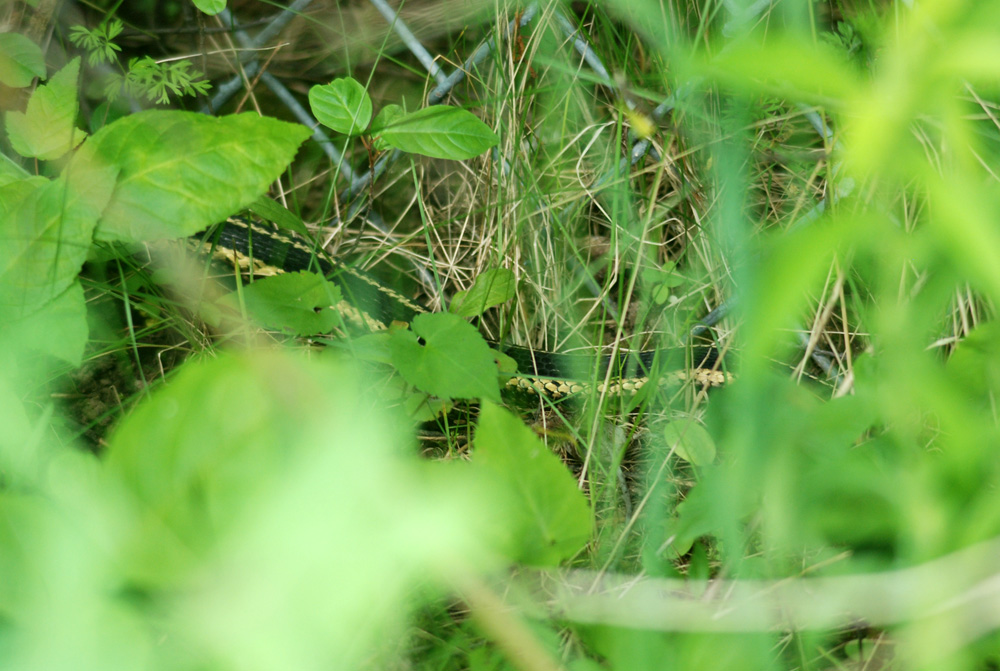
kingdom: Animalia
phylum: Chordata
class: Squamata
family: Colubridae
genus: Thamnophis
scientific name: Thamnophis sirtalis
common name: Common garter snake
